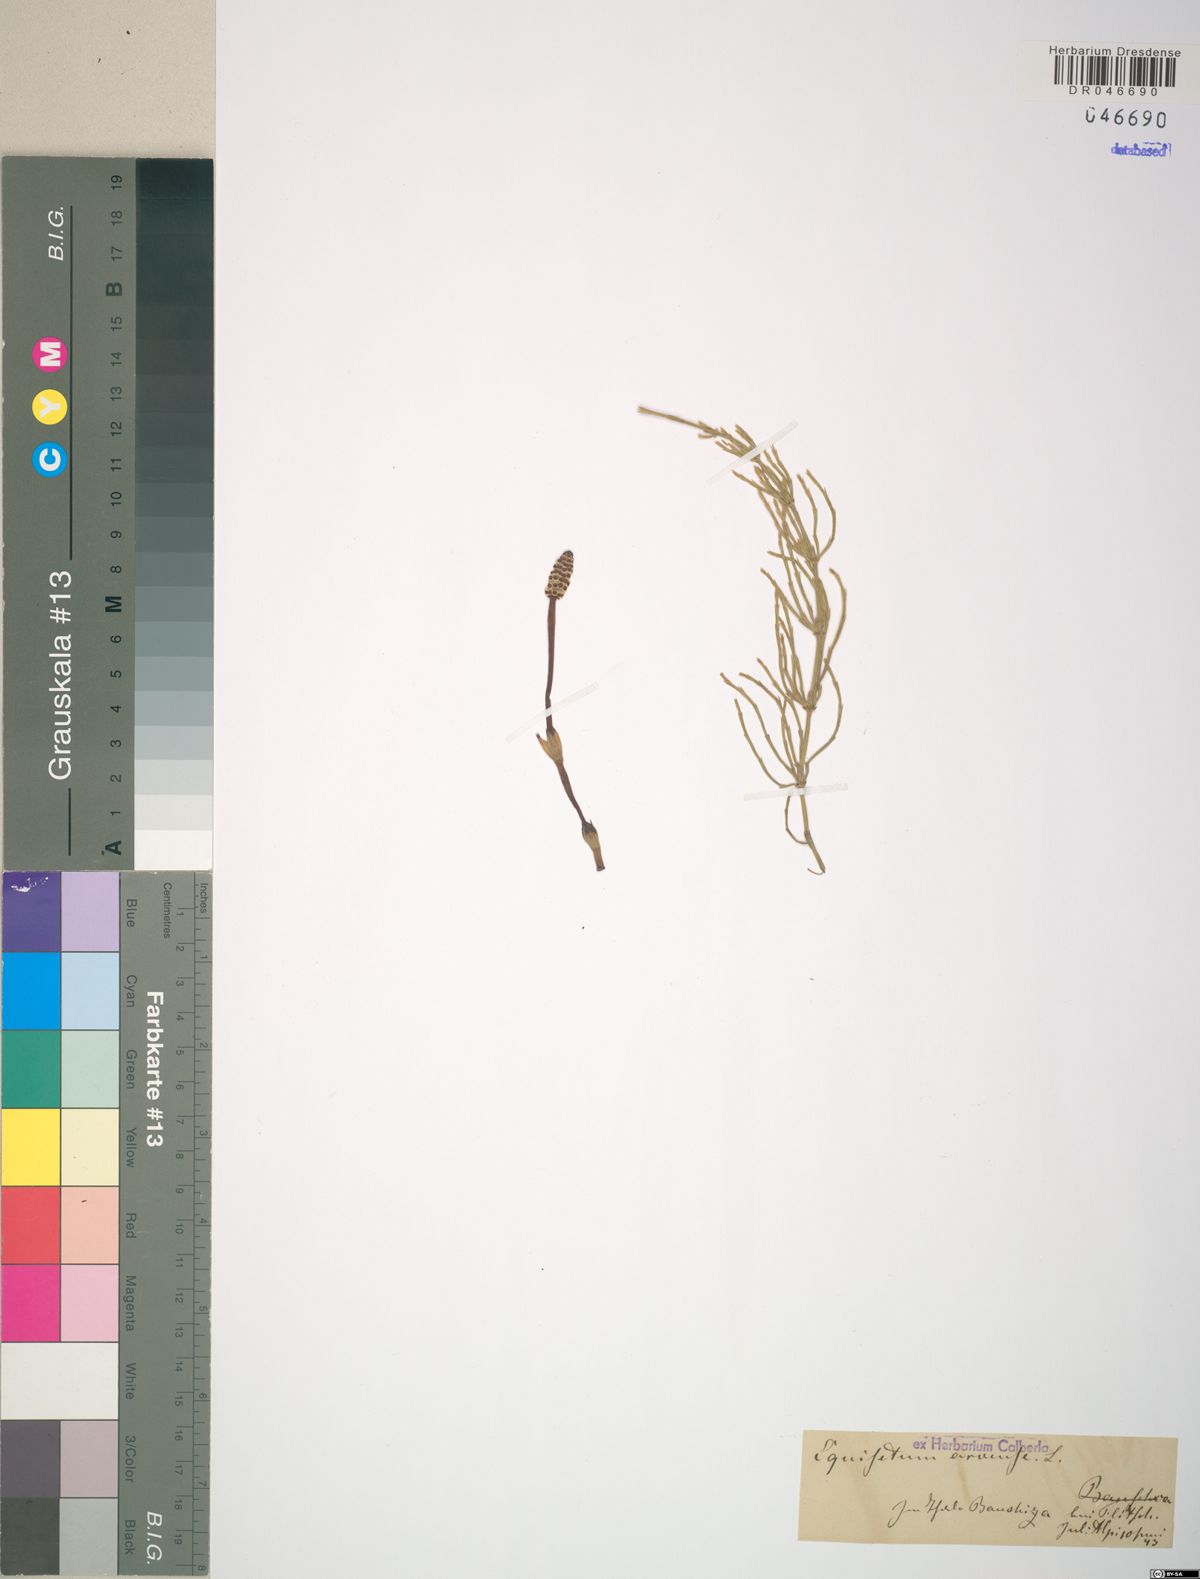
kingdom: Plantae
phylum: Tracheophyta
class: Polypodiopsida
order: Equisetales
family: Equisetaceae
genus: Equisetum
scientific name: Equisetum arvense
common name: Field horsetail
